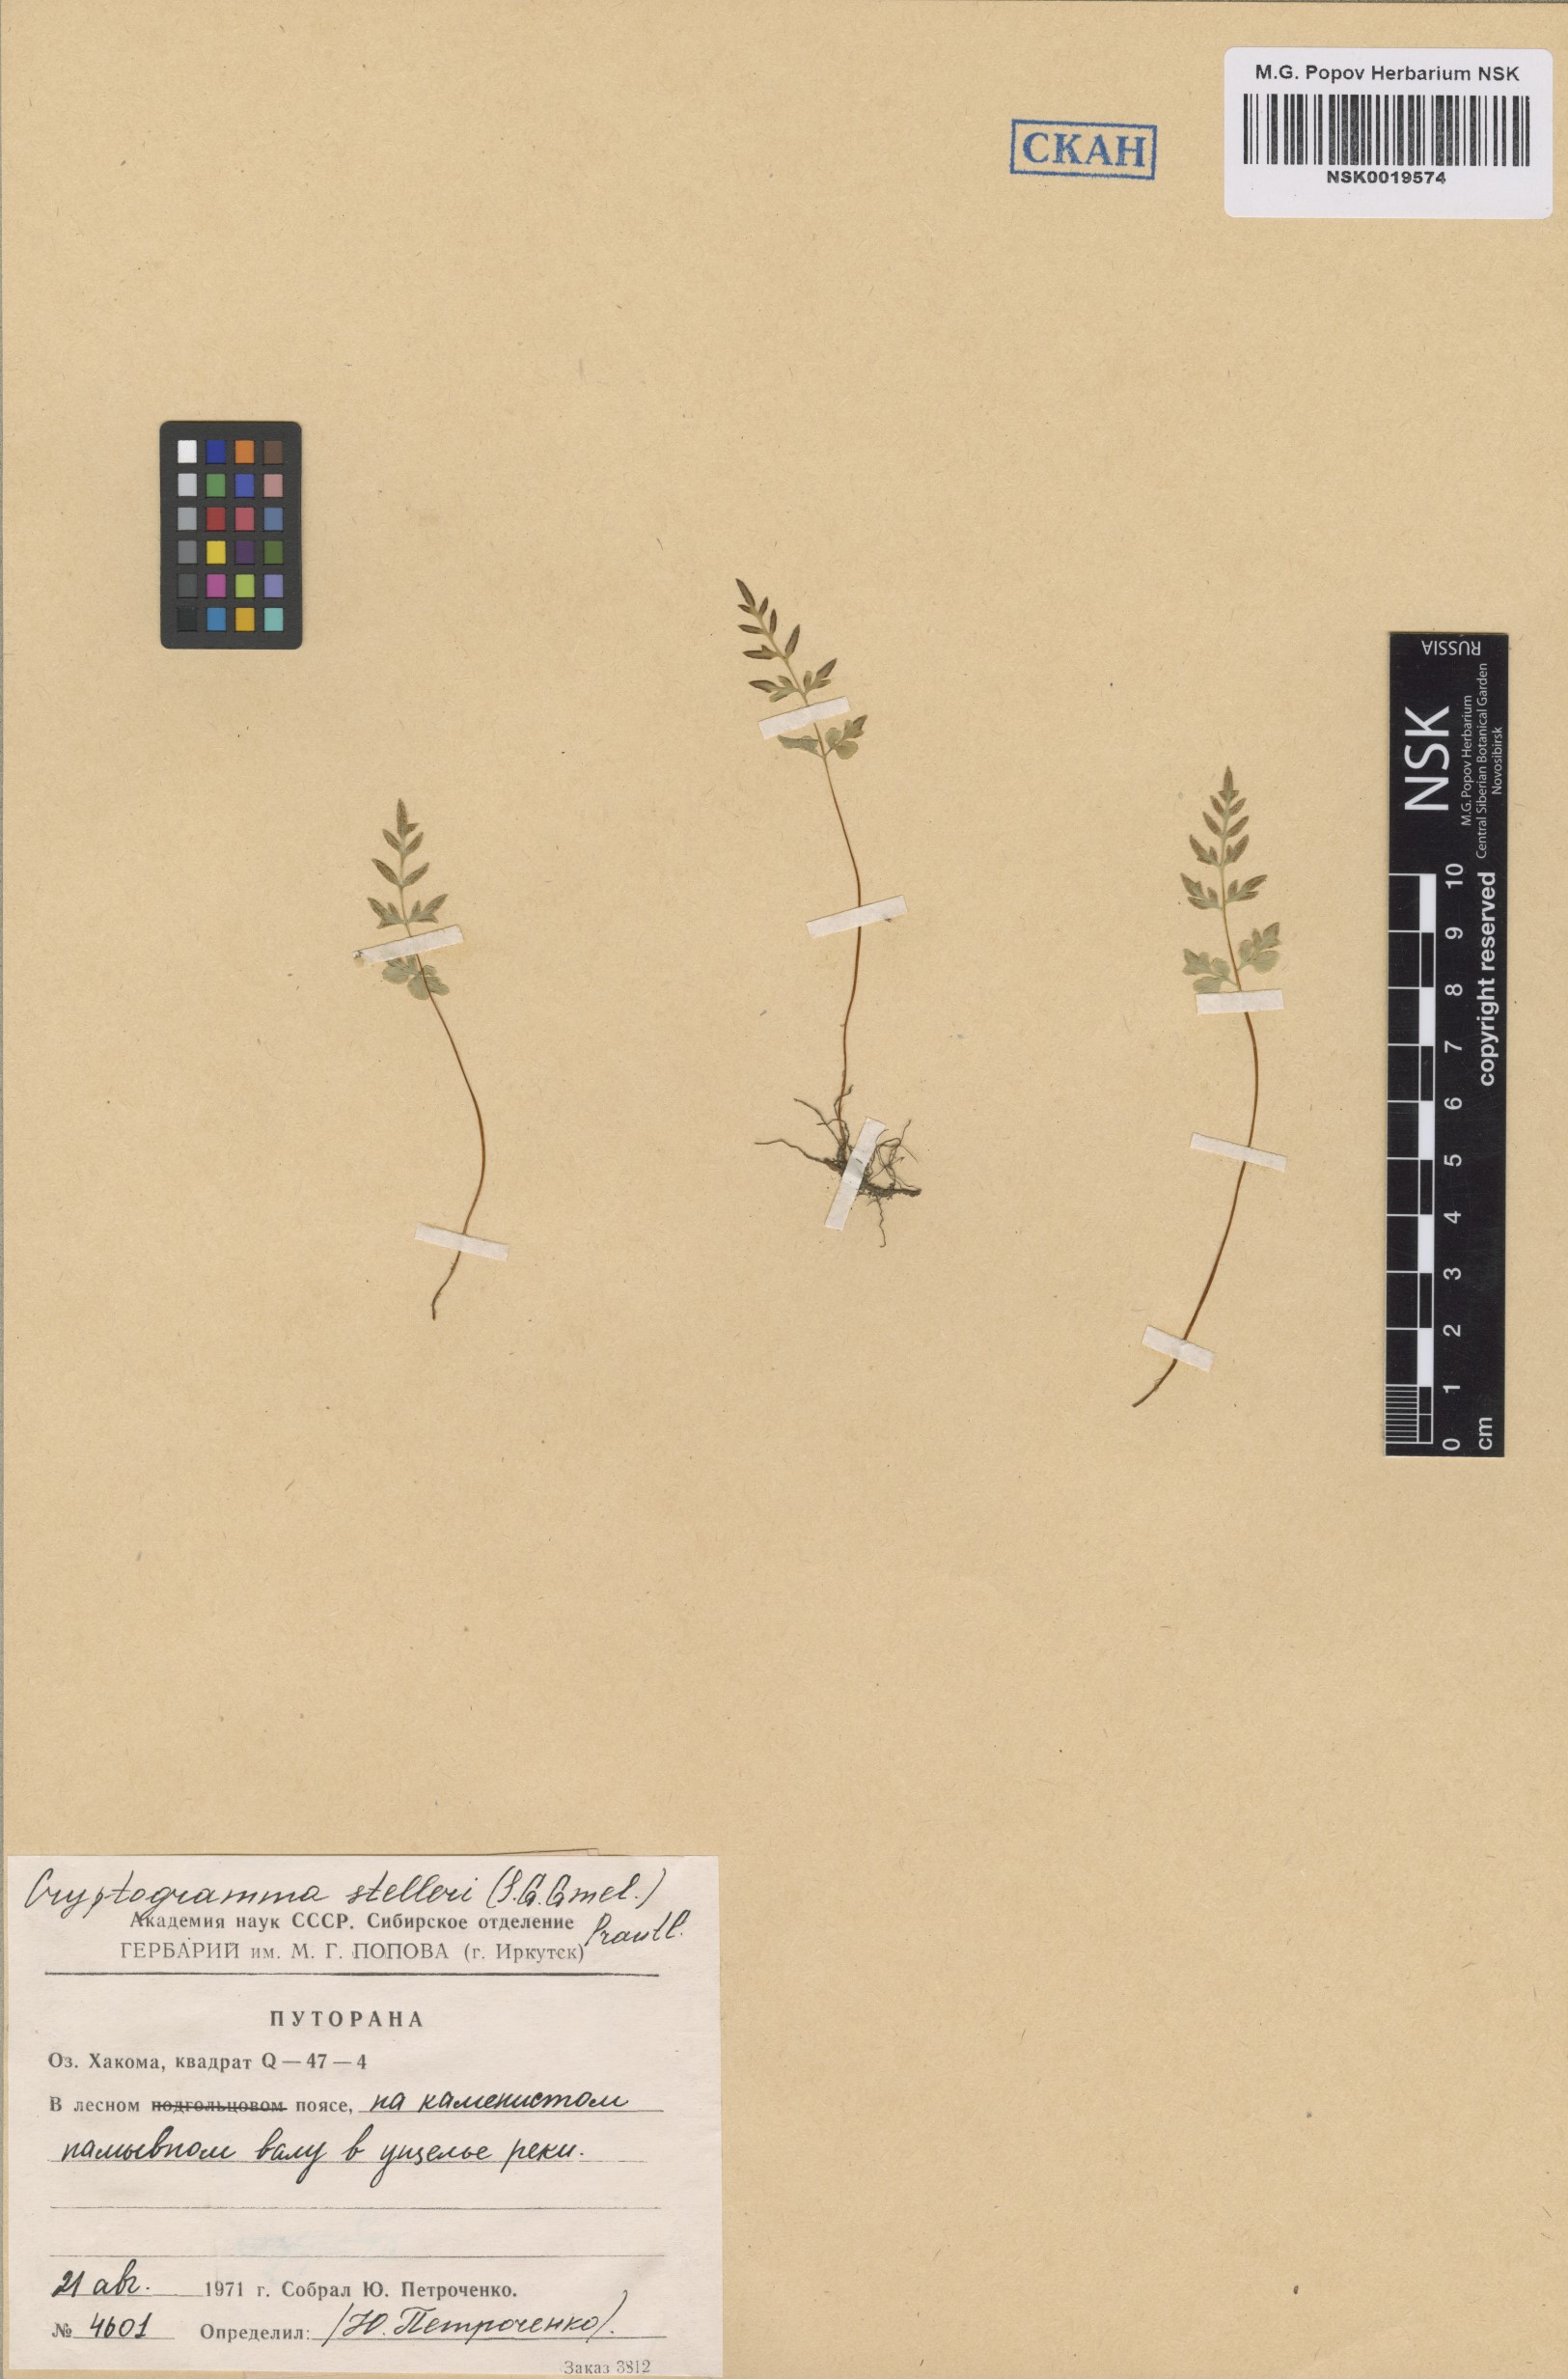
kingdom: Plantae
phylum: Tracheophyta
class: Polypodiopsida
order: Polypodiales
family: Pteridaceae
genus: Cryptogramma
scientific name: Cryptogramma stelleri
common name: Cliff-brake
